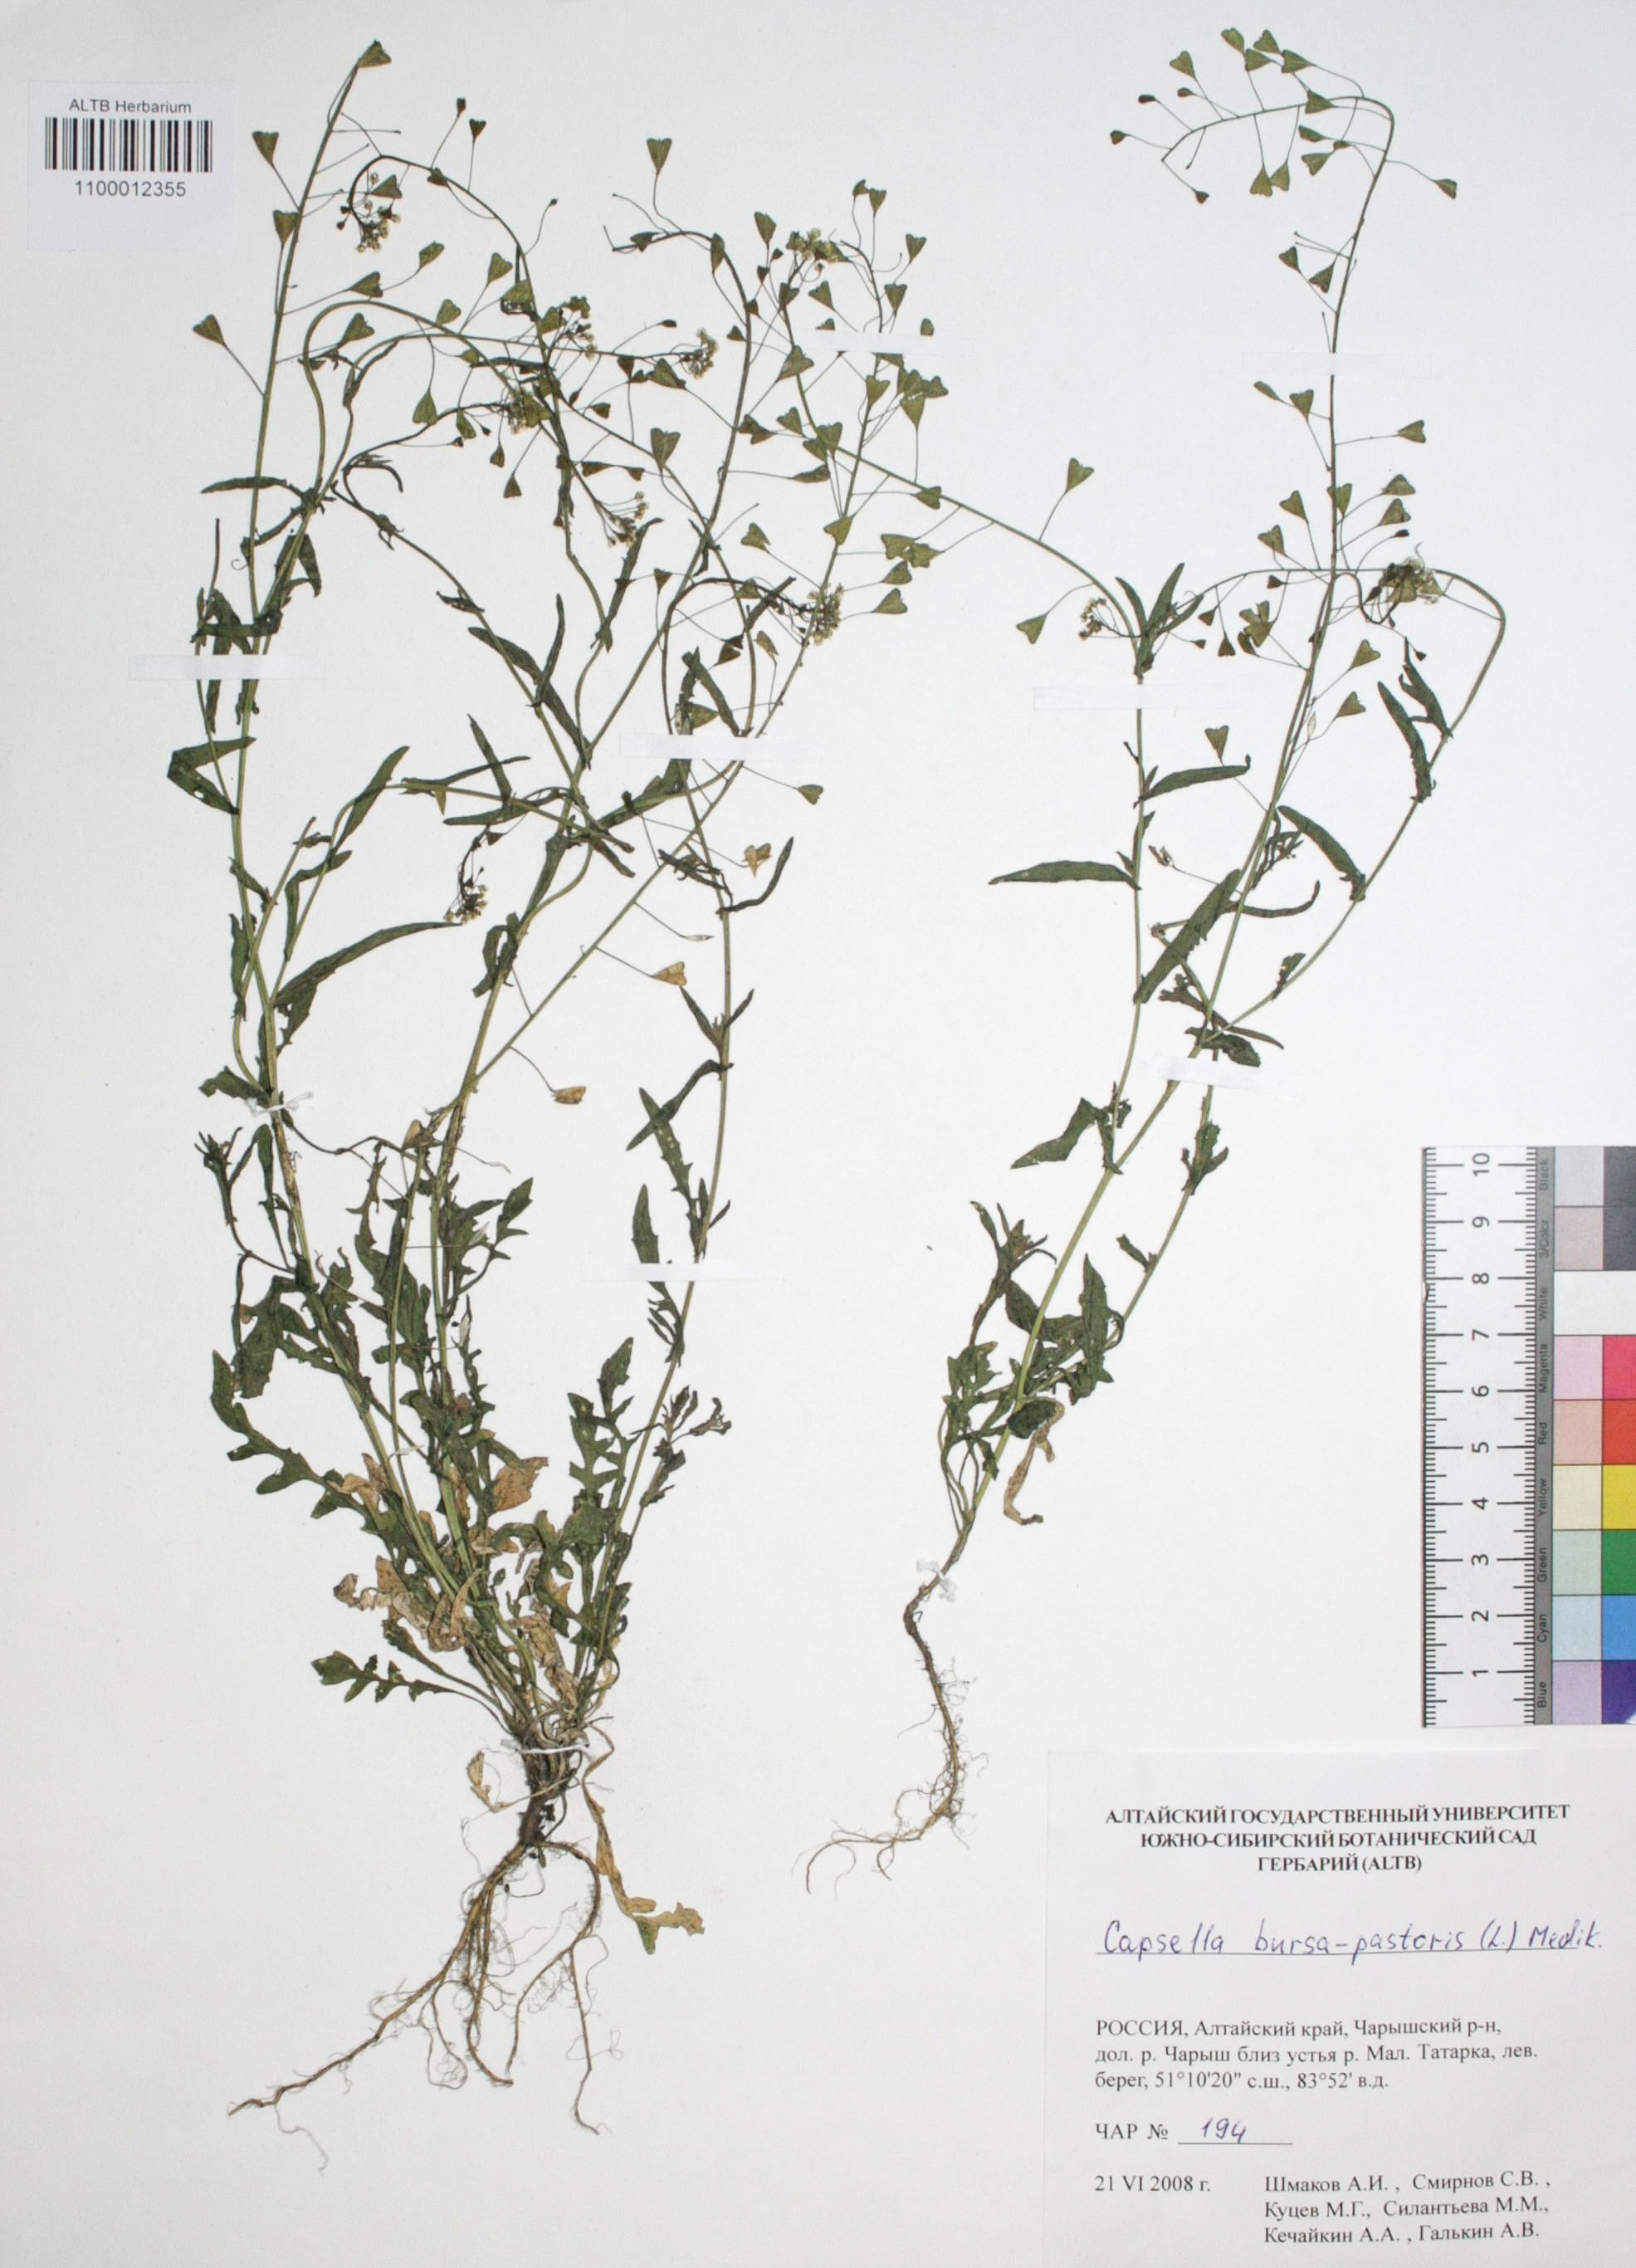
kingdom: Plantae
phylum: Tracheophyta
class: Magnoliopsida
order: Brassicales
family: Brassicaceae
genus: Capsella
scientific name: Capsella bursa-pastoris
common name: Shepherd's purse
